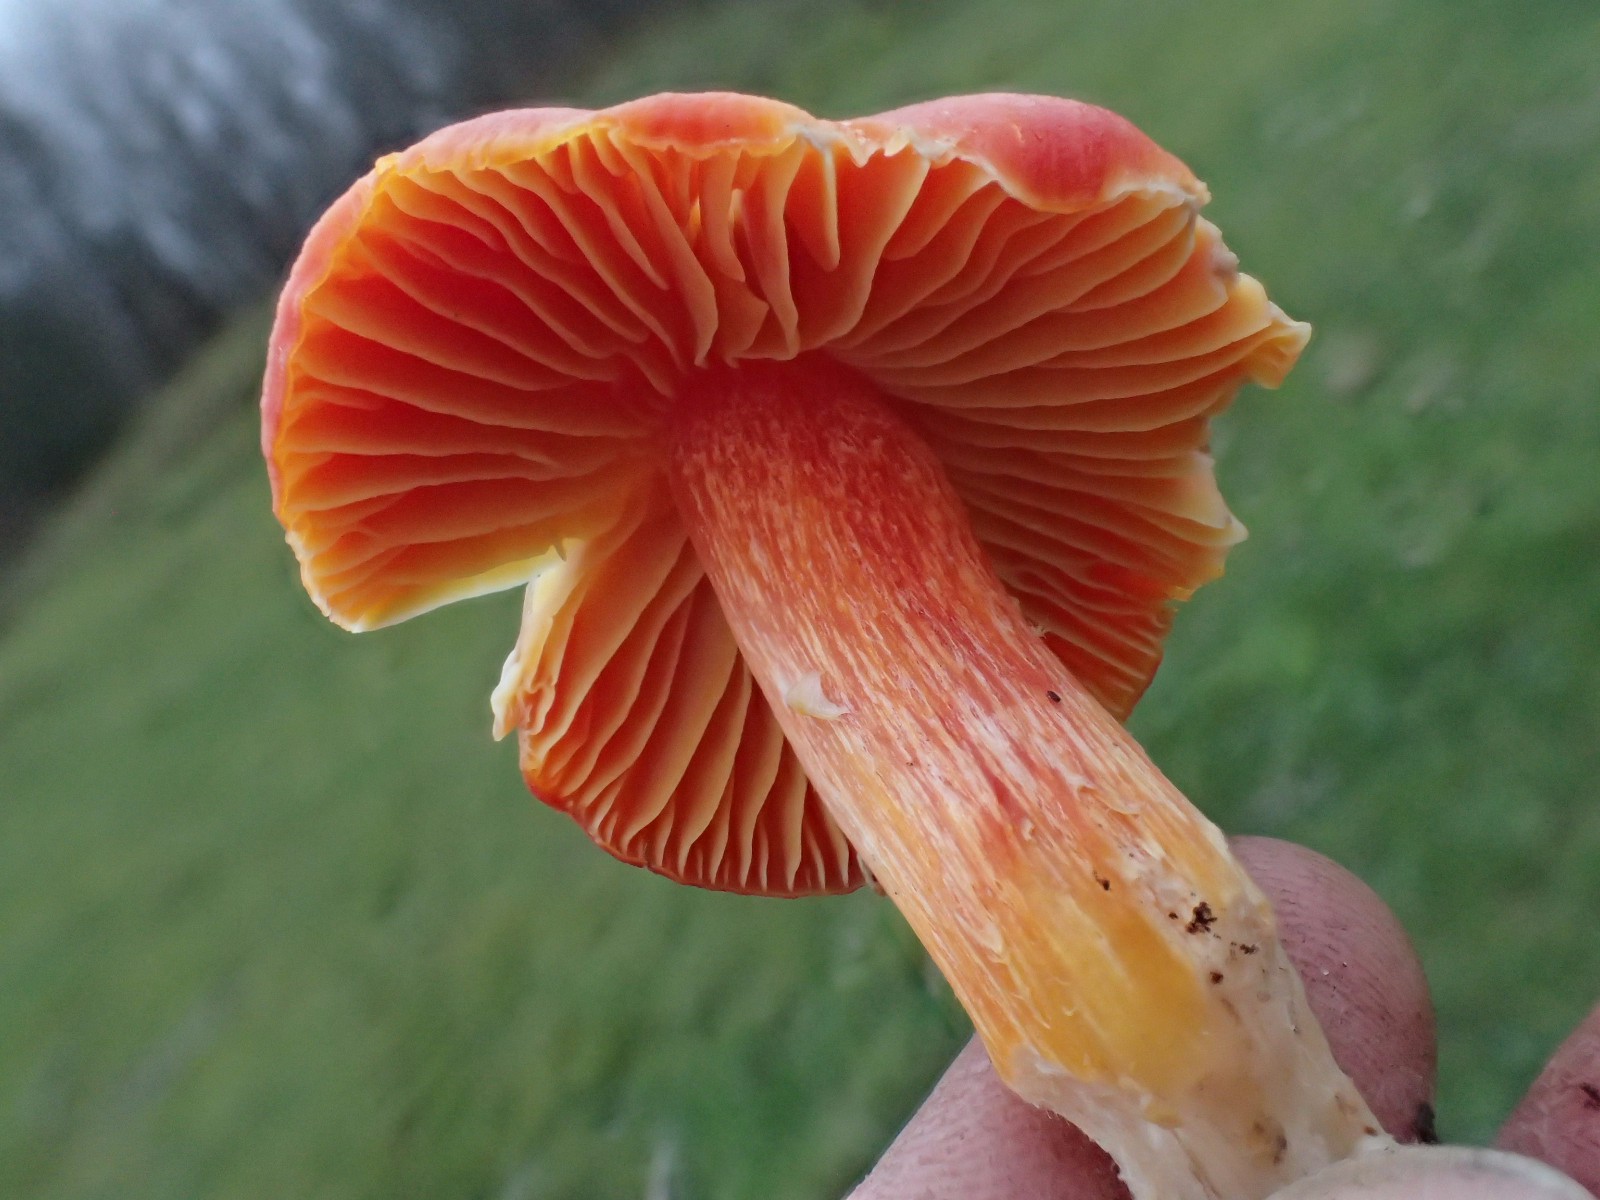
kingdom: Fungi
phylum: Basidiomycota
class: Agaricomycetes
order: Agaricales
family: Hygrophoraceae
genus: Hygrocybe
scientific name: Hygrocybe punicea
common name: skarlagen-vokshat
